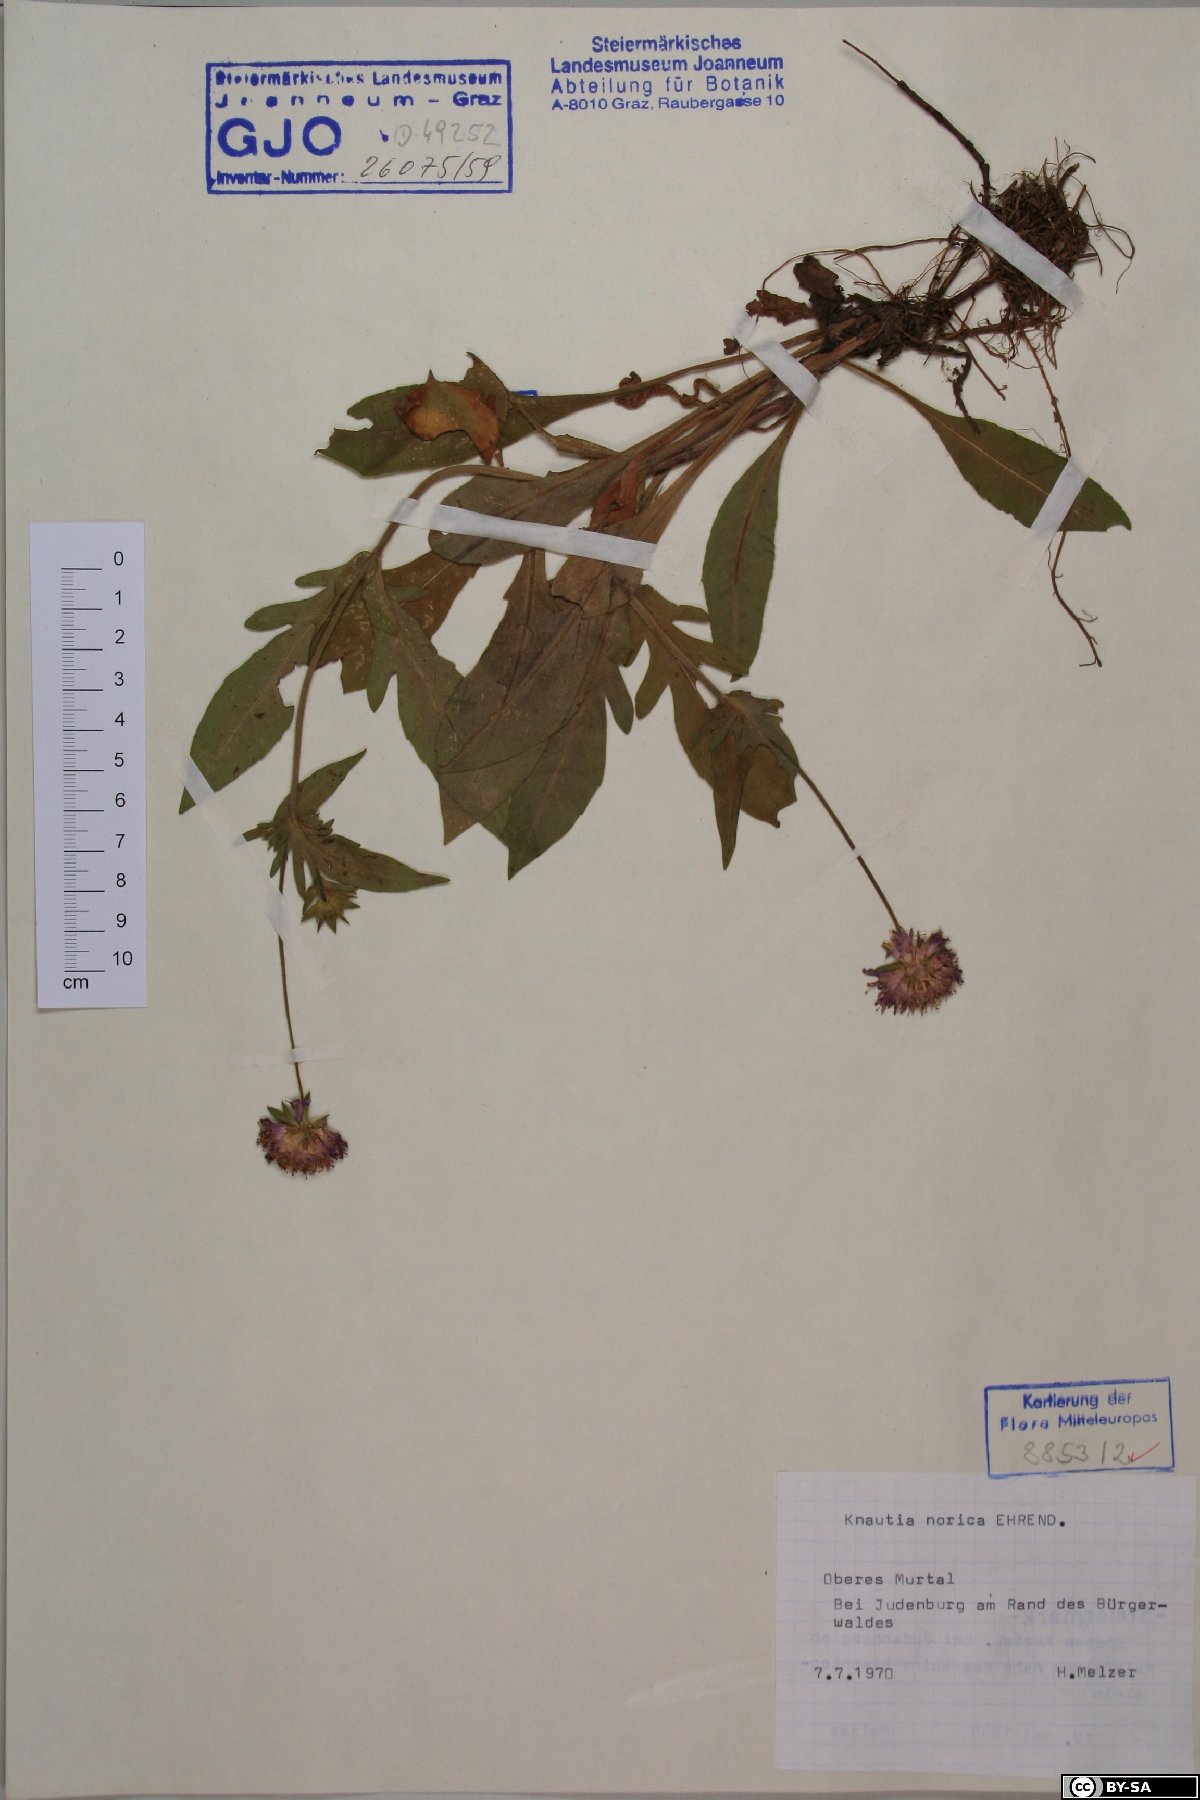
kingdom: Plantae
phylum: Tracheophyta
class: Magnoliopsida
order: Dipsacales
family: Caprifoliaceae
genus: Knautia
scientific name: Knautia norica
